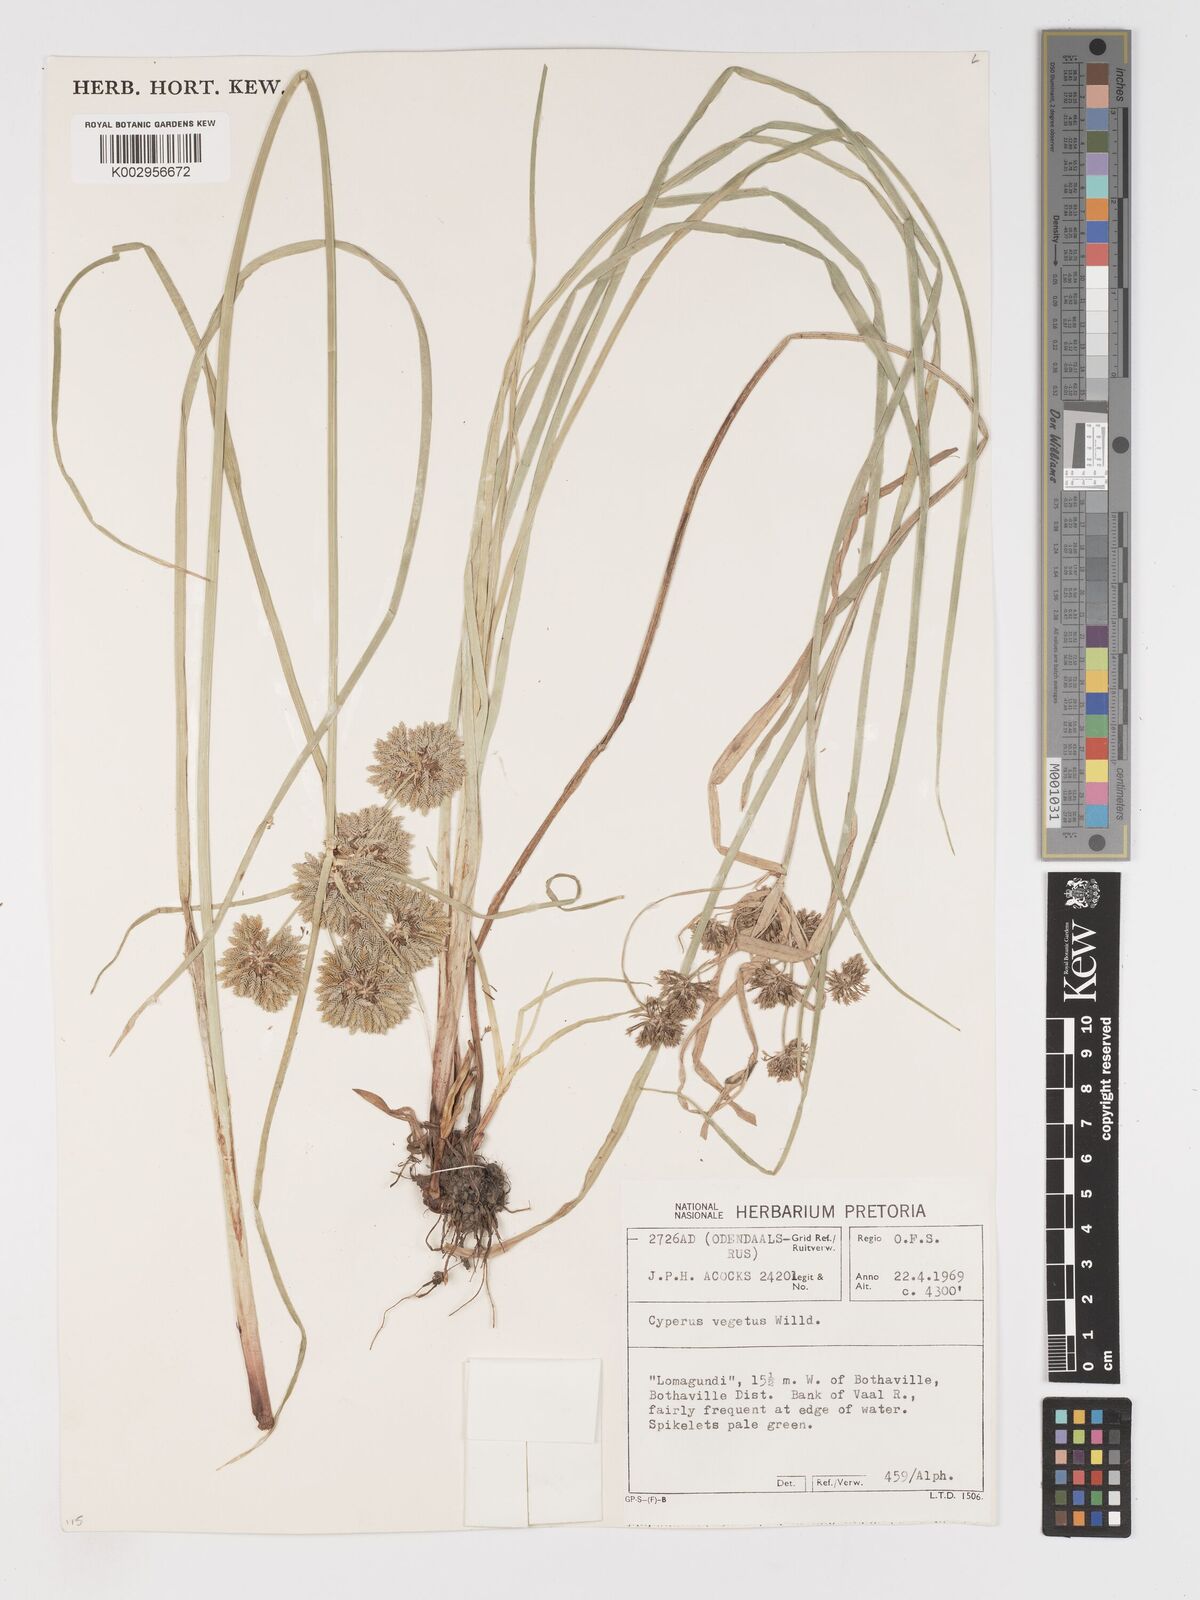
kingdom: Plantae
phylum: Tracheophyta
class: Liliopsida
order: Poales
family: Cyperaceae
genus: Cyperus
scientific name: Cyperus eragrostis
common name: Tall flatsedge
